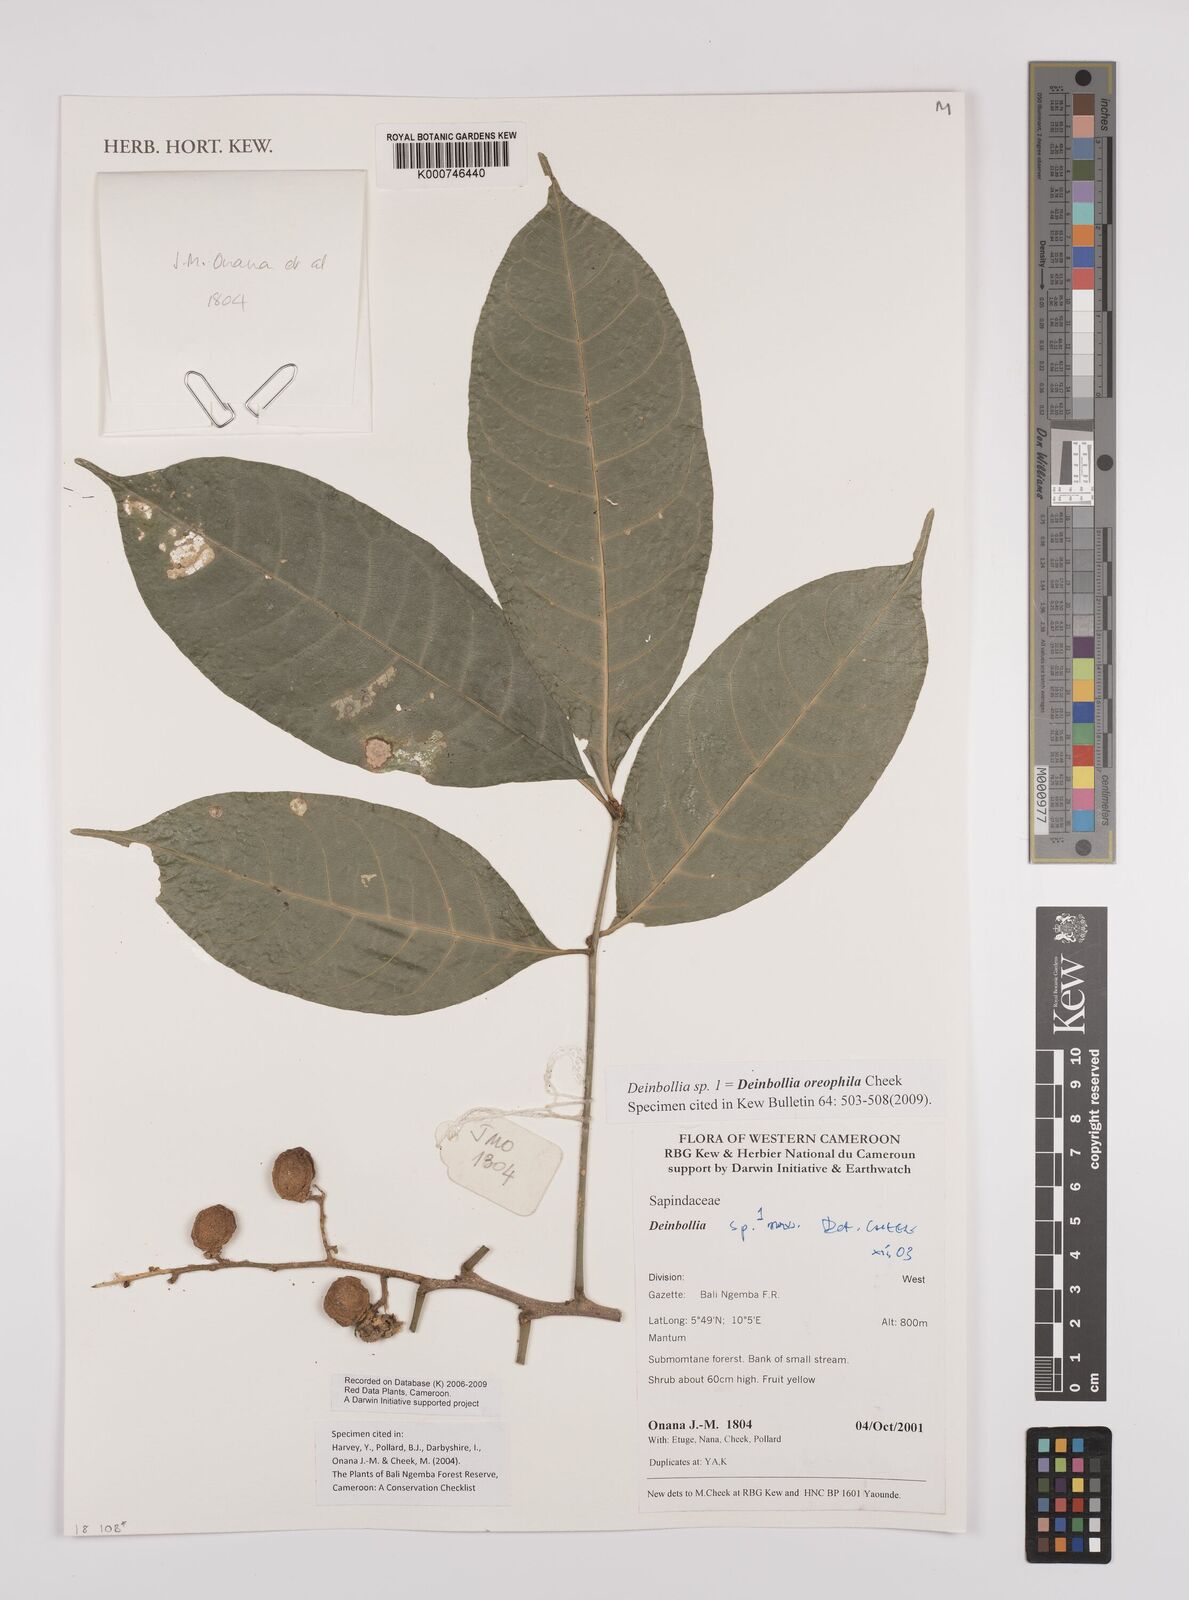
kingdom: Plantae
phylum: Tracheophyta
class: Magnoliopsida
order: Sapindales
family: Sapindaceae
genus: Deinbollia
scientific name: Deinbollia oreophila
